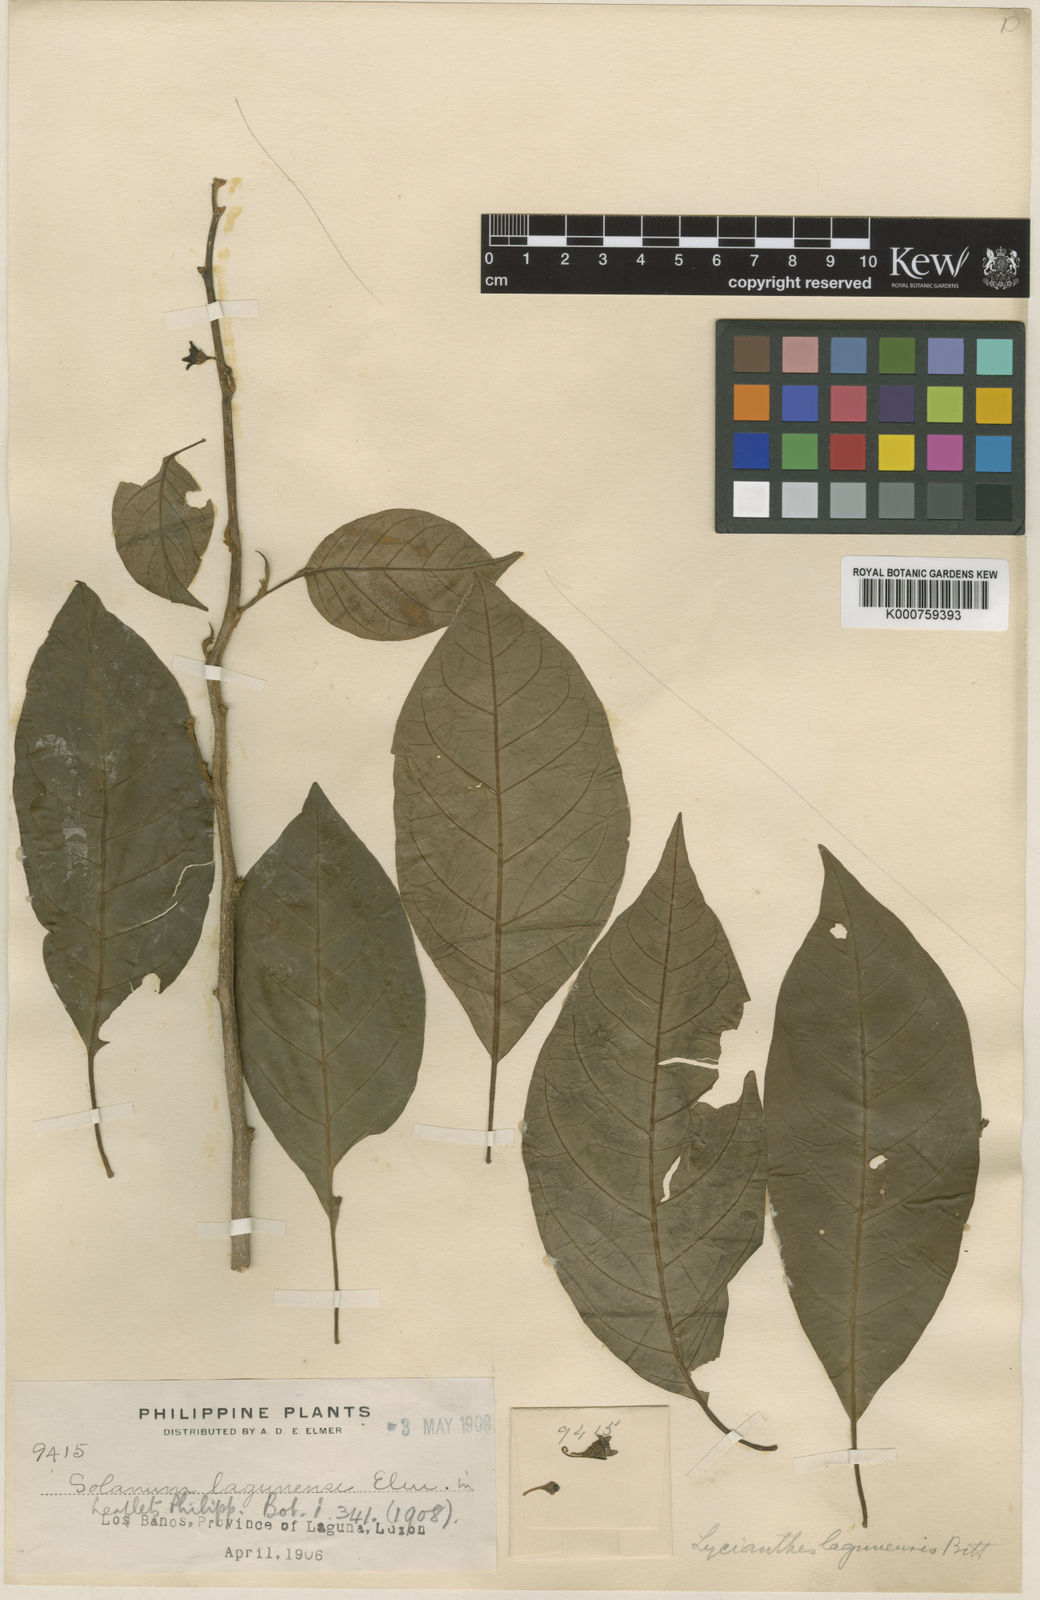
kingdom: Plantae
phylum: Tracheophyta
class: Magnoliopsida
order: Solanales
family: Solanaceae
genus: Lycianthes
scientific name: Lycianthes lagunensis
